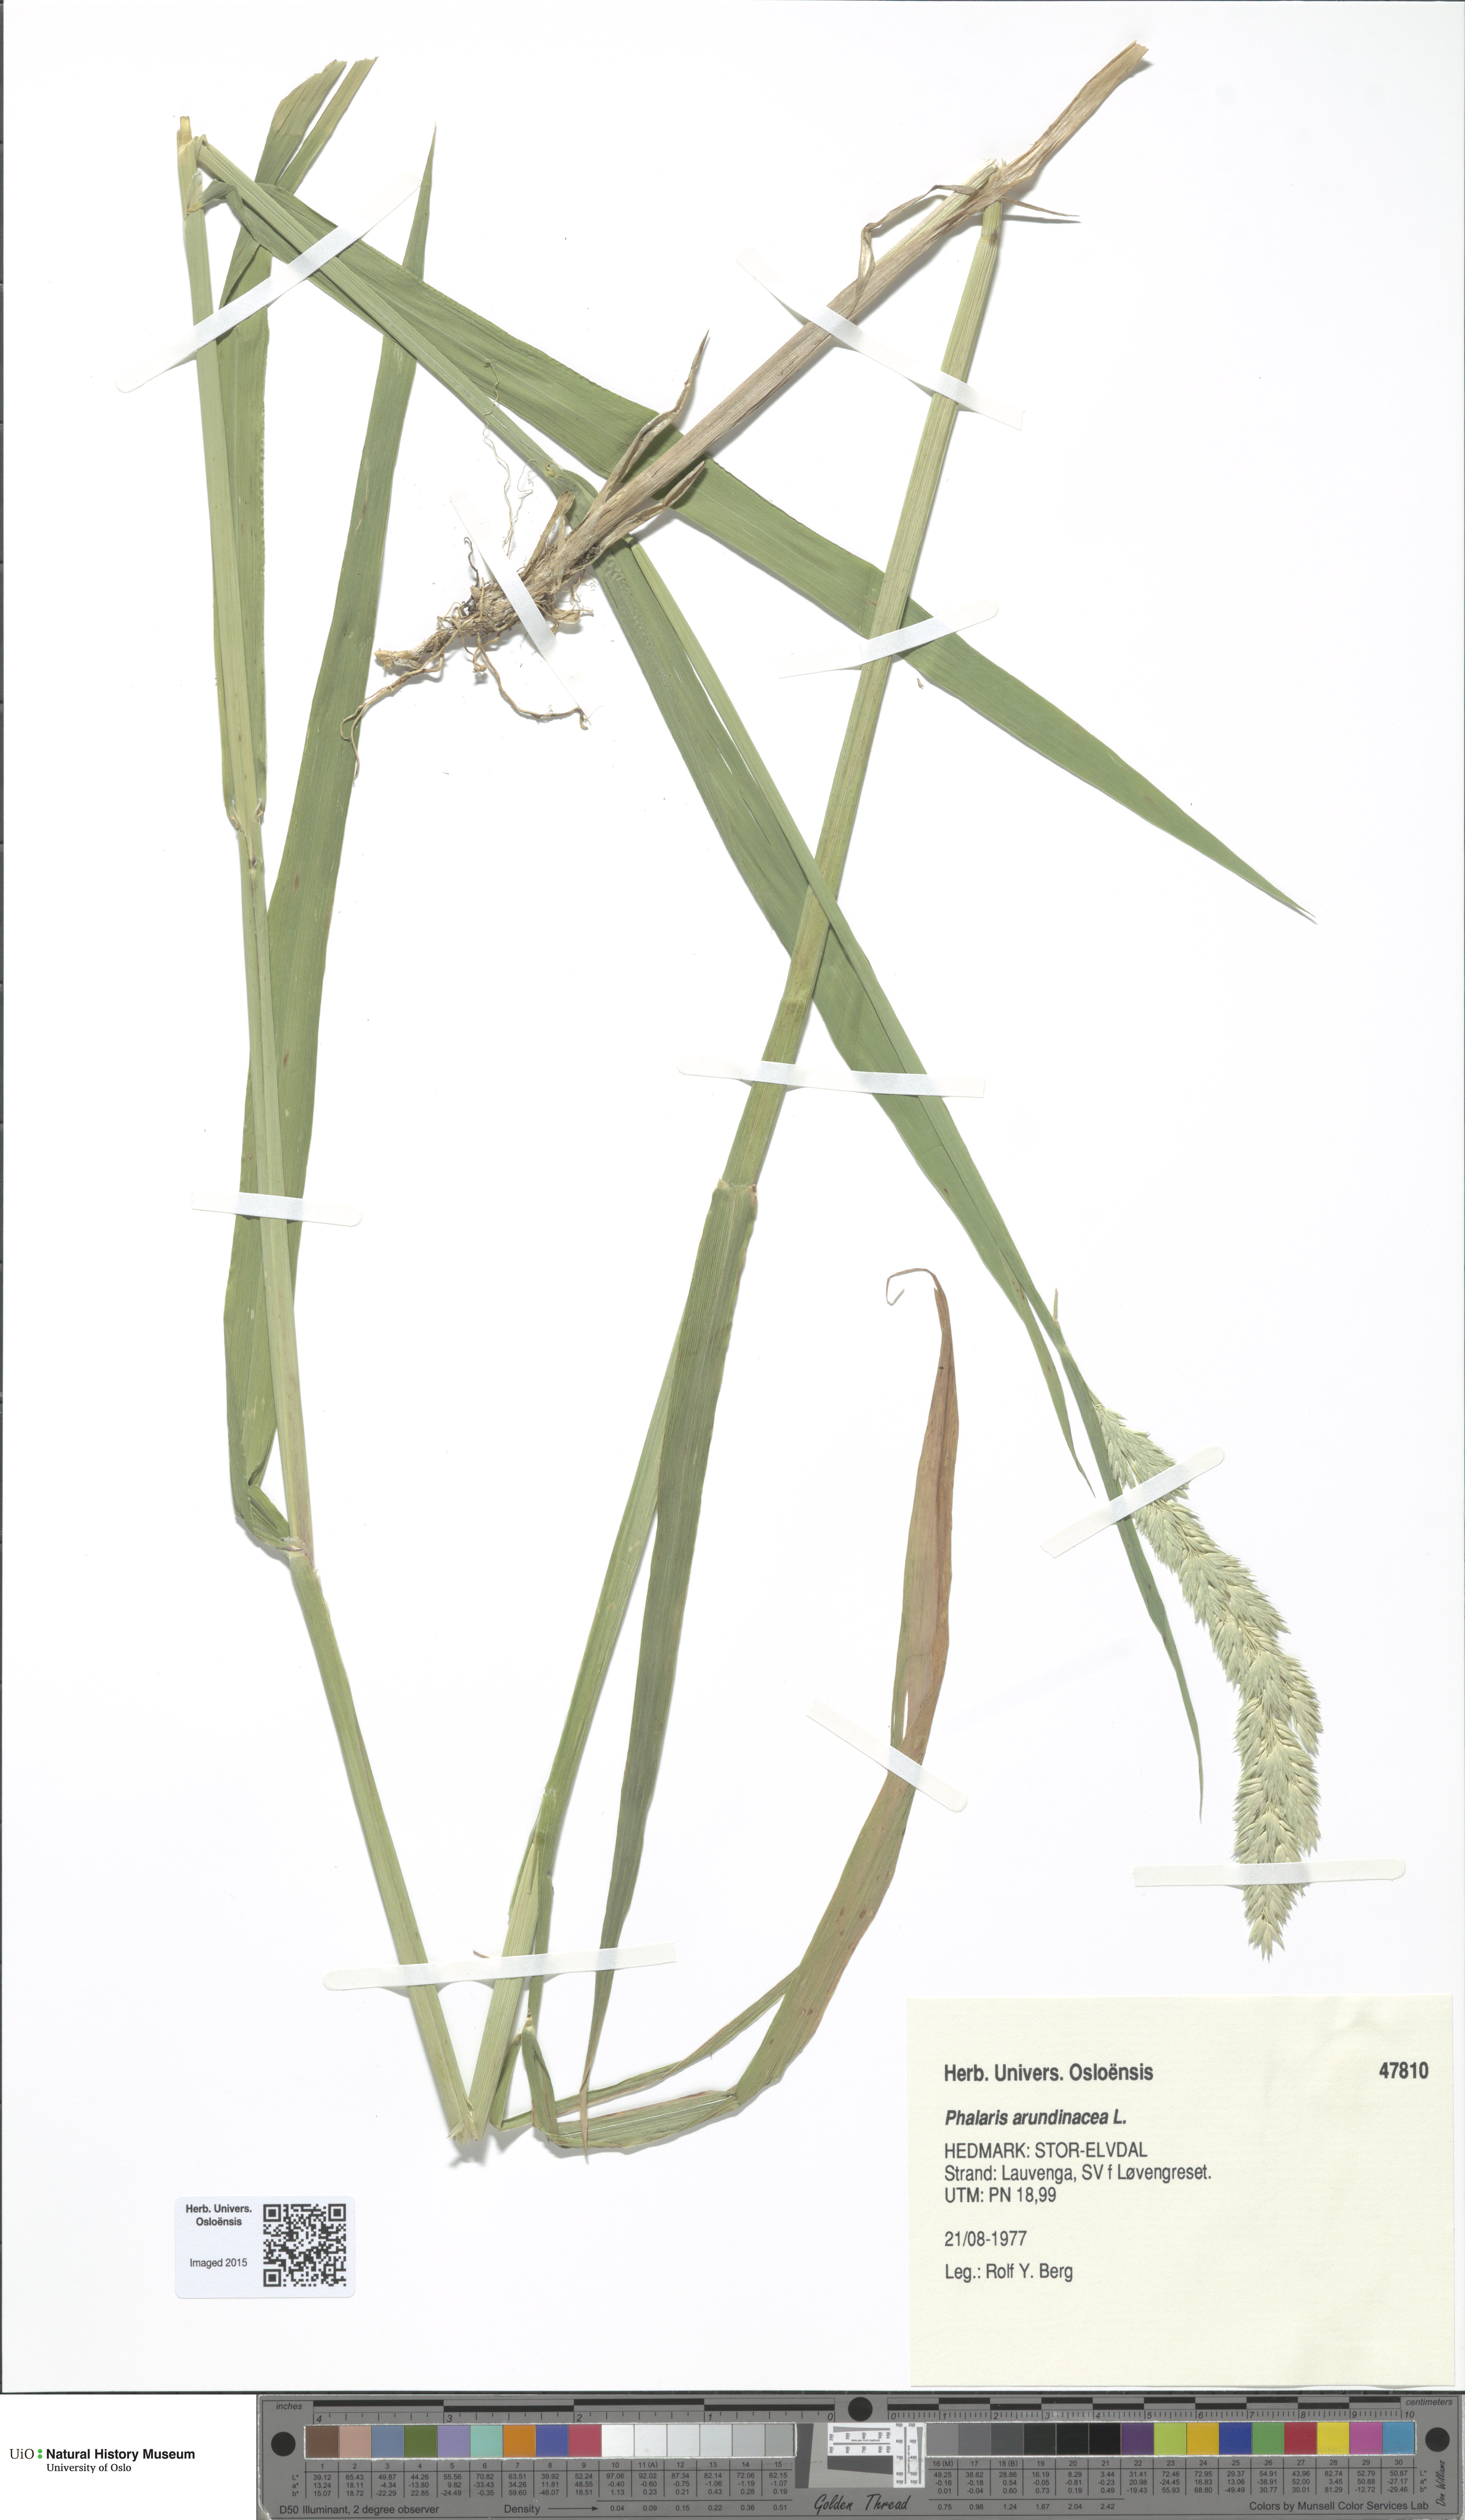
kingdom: Plantae
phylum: Tracheophyta
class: Liliopsida
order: Poales
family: Poaceae
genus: Phalaris
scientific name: Phalaris arundinacea
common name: Reed canary-grass
